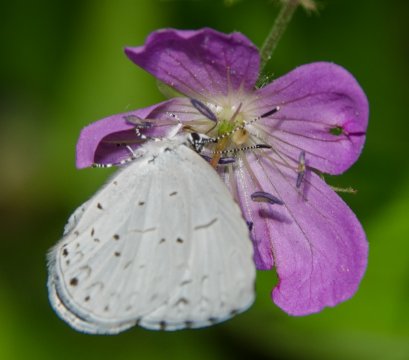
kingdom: Animalia
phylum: Arthropoda
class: Insecta
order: Lepidoptera
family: Lycaenidae
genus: Celastrina
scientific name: Celastrina neglectamajor
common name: Appalachian Azure
